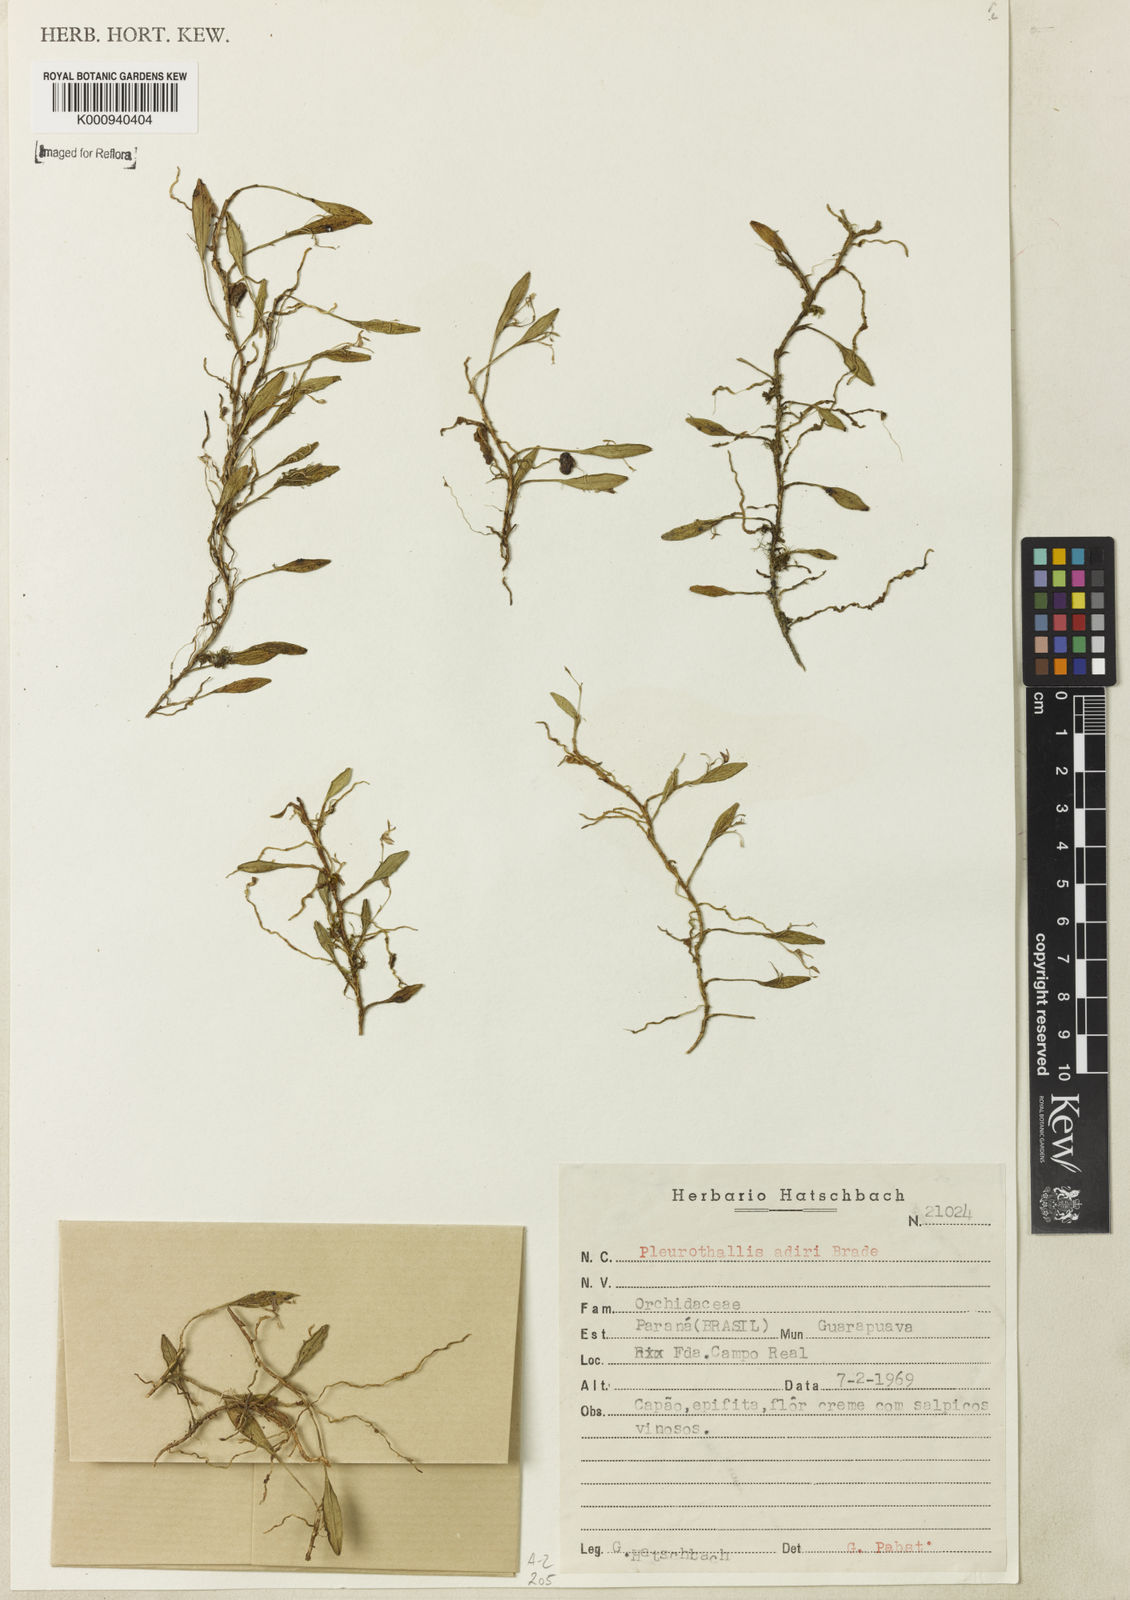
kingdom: Plantae
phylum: Tracheophyta
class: Liliopsida
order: Asparagales
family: Orchidaceae
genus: Acianthera
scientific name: Acianthera adirii
